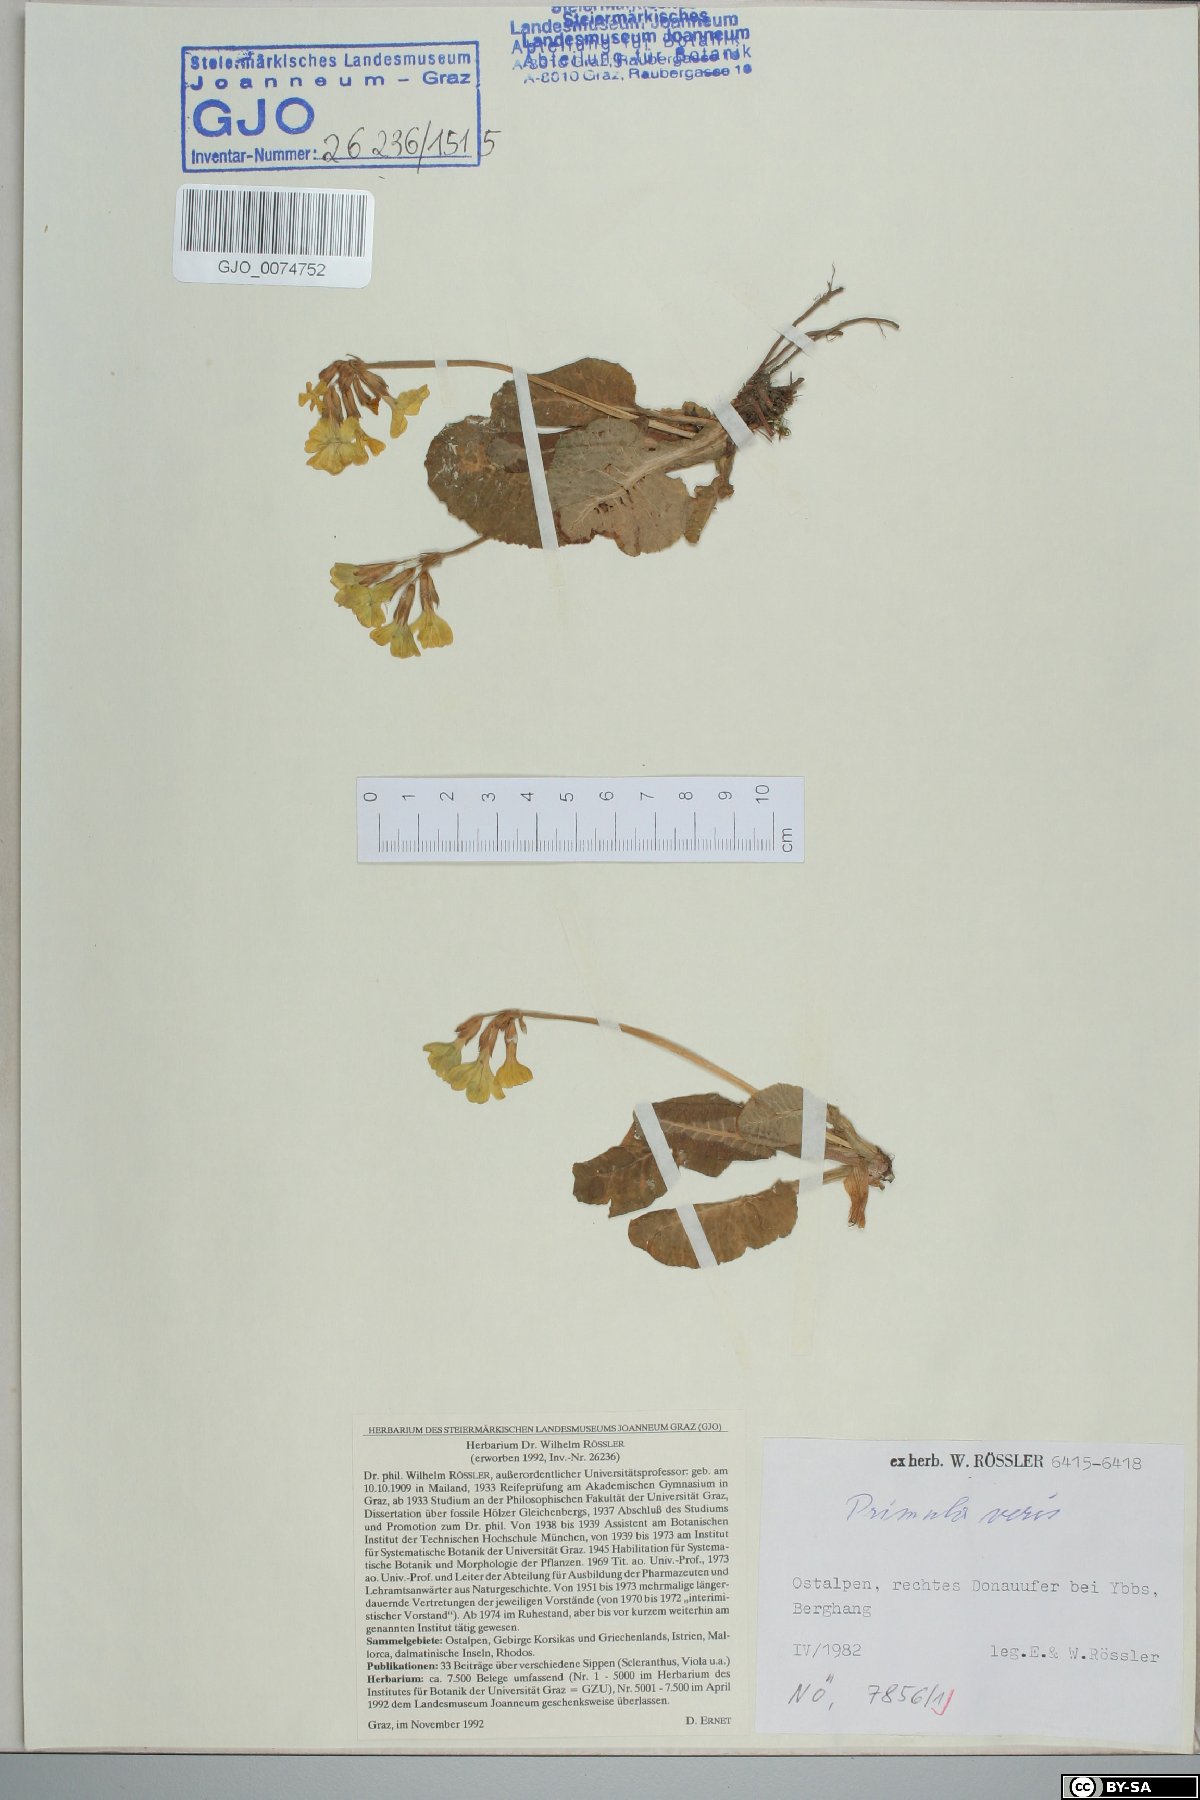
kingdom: Plantae
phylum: Tracheophyta
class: Magnoliopsida
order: Ericales
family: Primulaceae
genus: Primula
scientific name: Primula veris
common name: Cowslip
